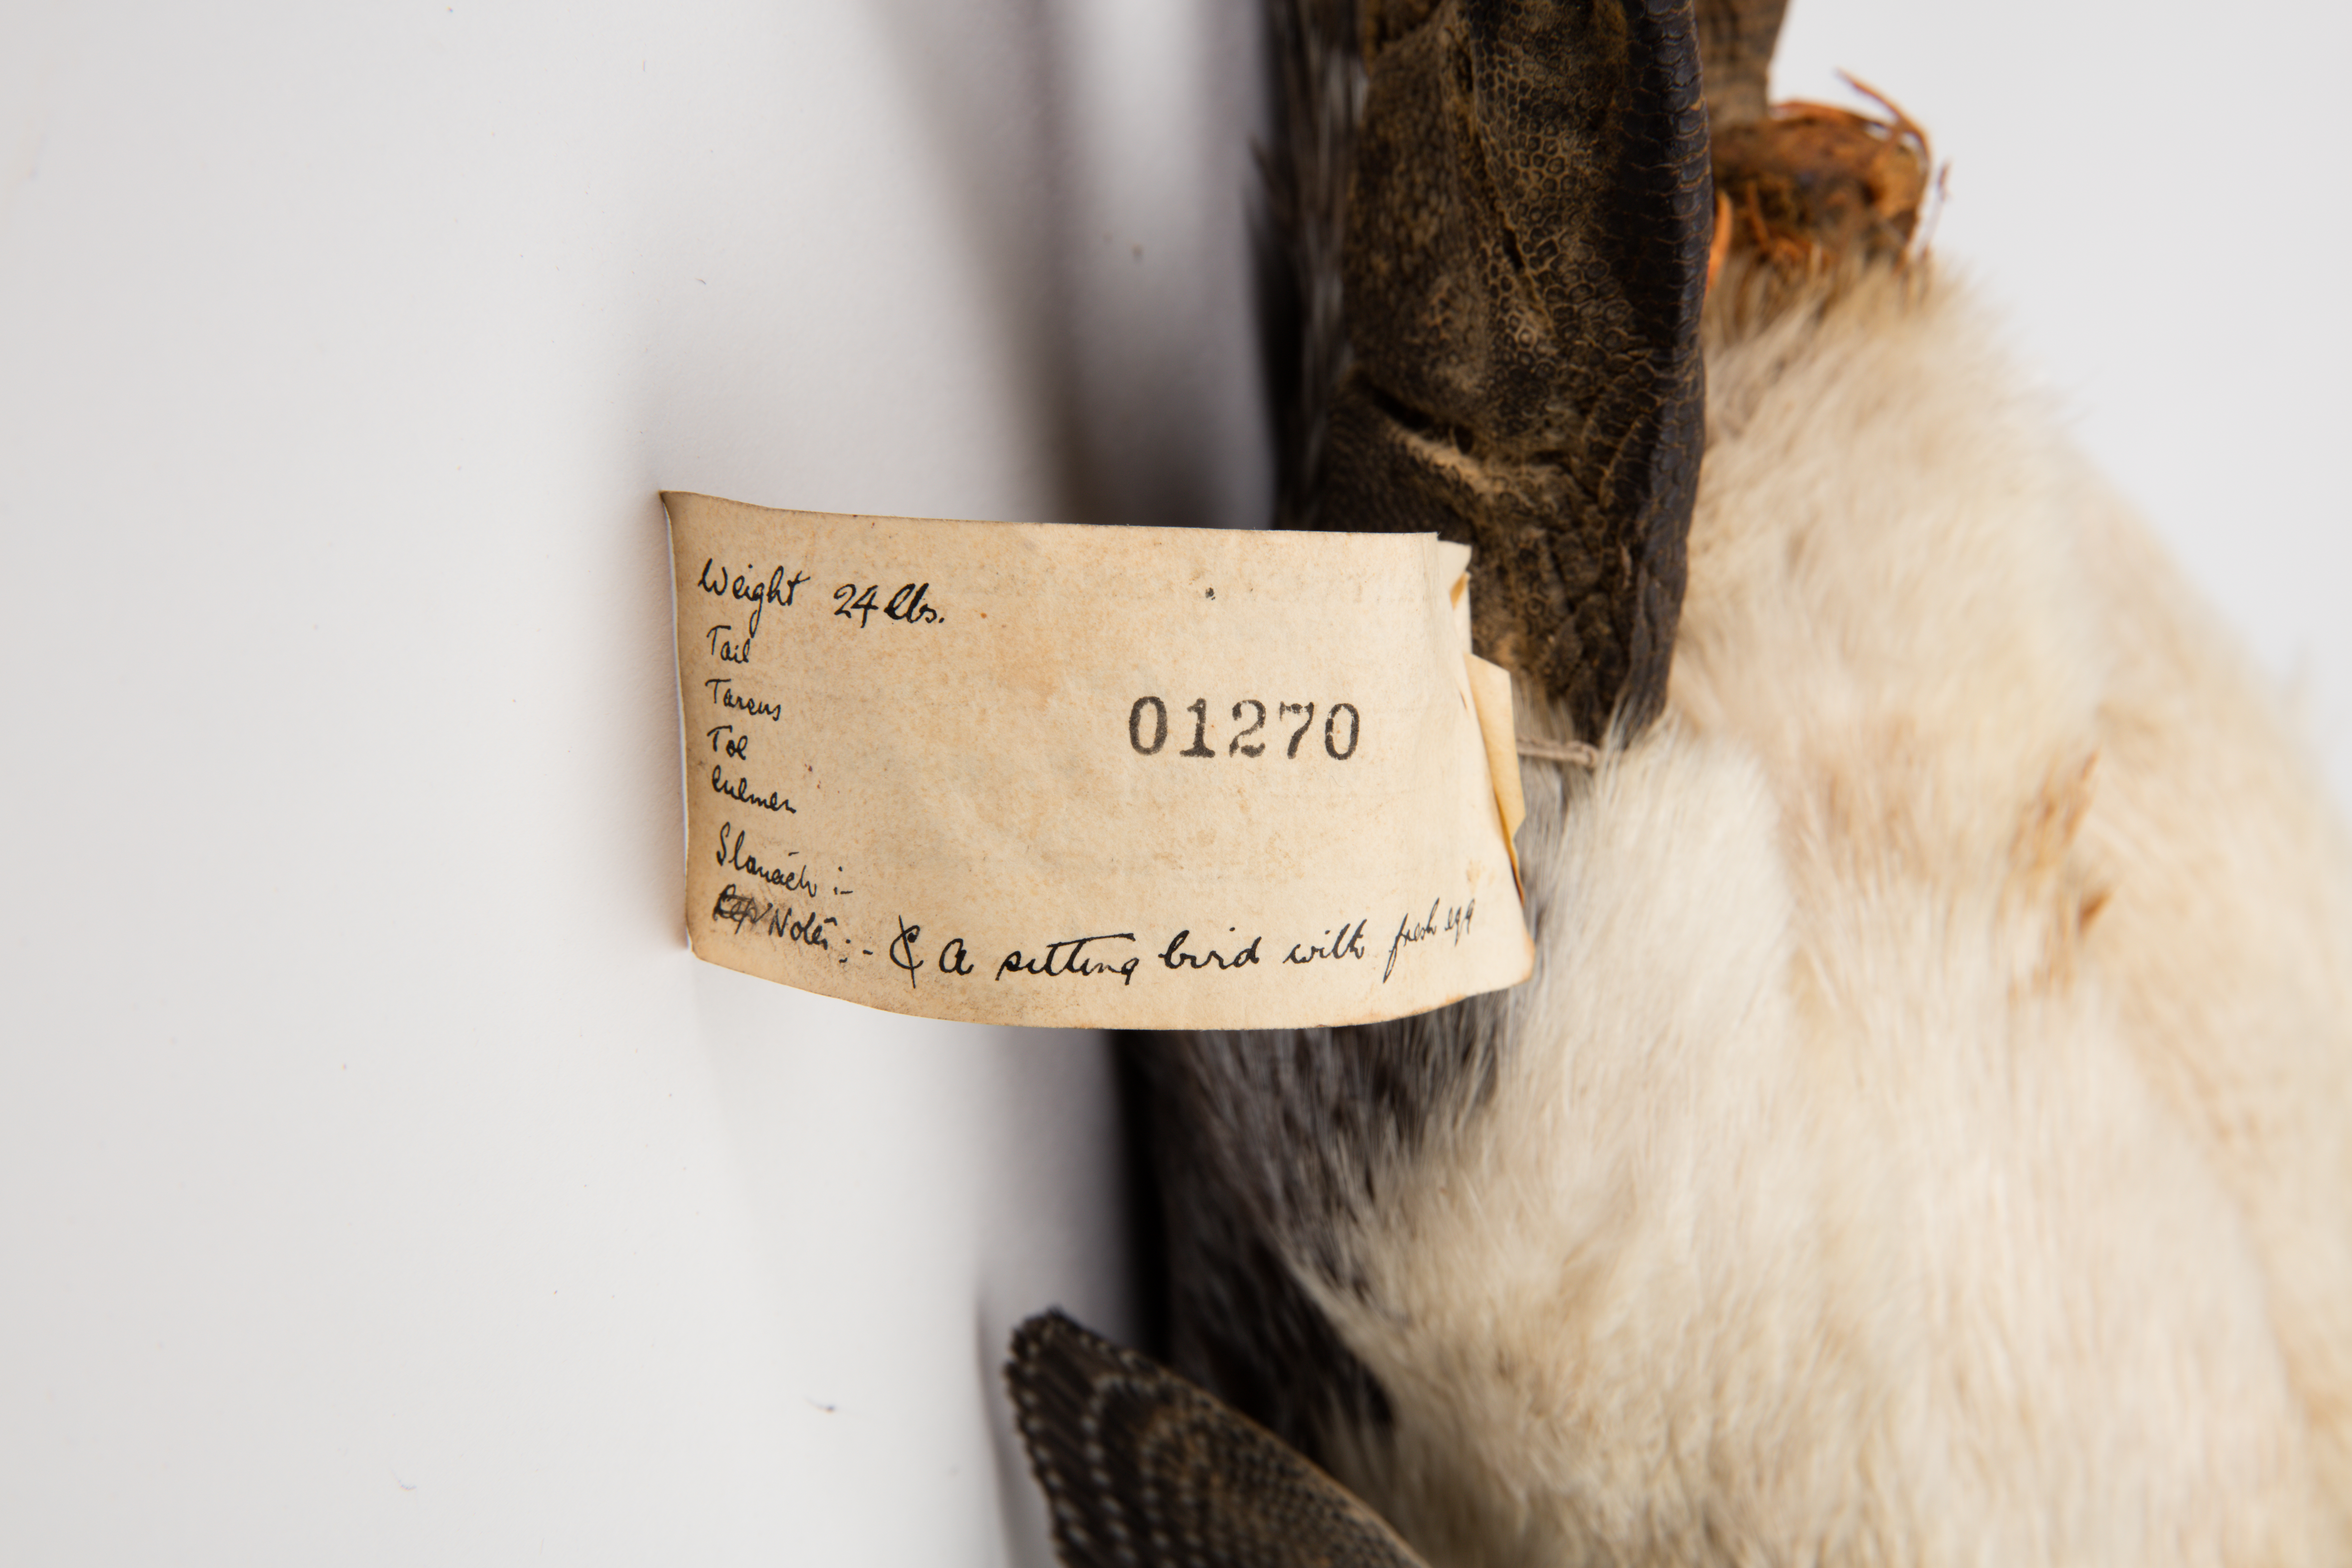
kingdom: Animalia
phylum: Chordata
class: Aves
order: Sphenisciformes
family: Spheniscidae
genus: Aptenodytes
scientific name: Aptenodytes patagonicus
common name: King penguin
